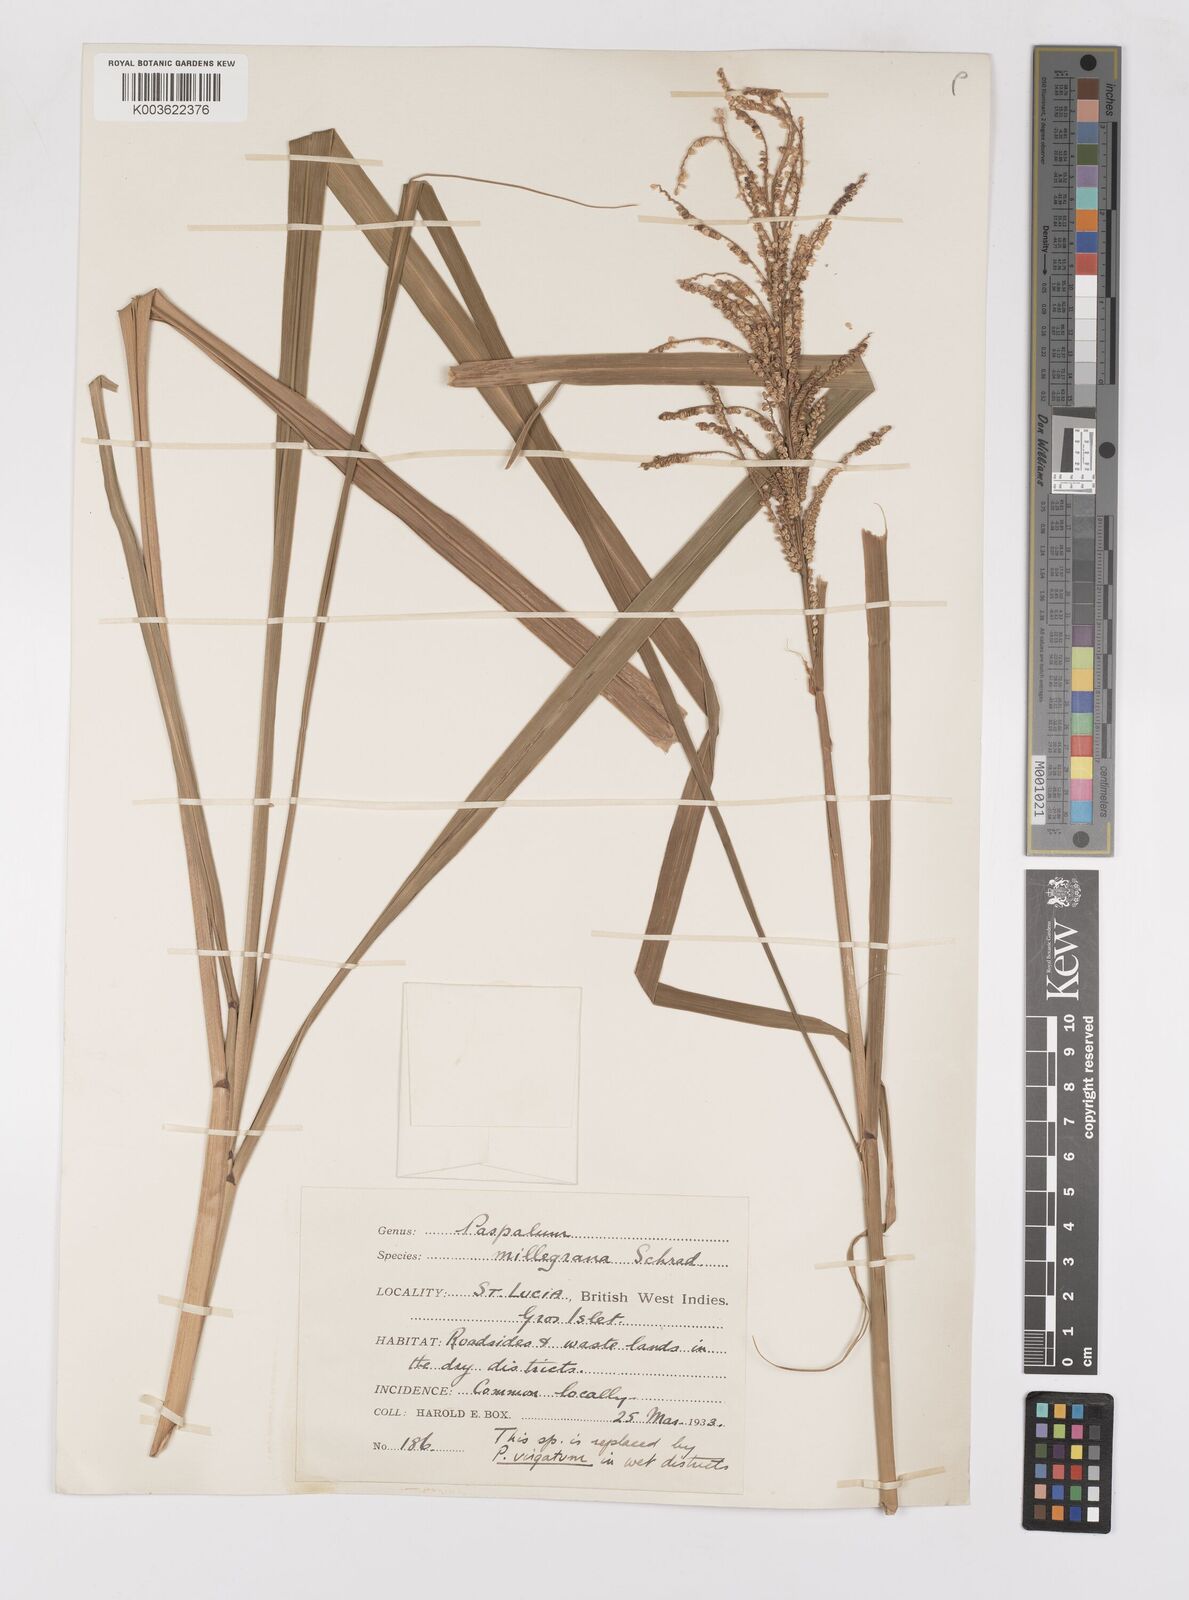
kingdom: Plantae
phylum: Tracheophyta
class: Liliopsida
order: Poales
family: Poaceae
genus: Paspalum
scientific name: Paspalum millegranum
